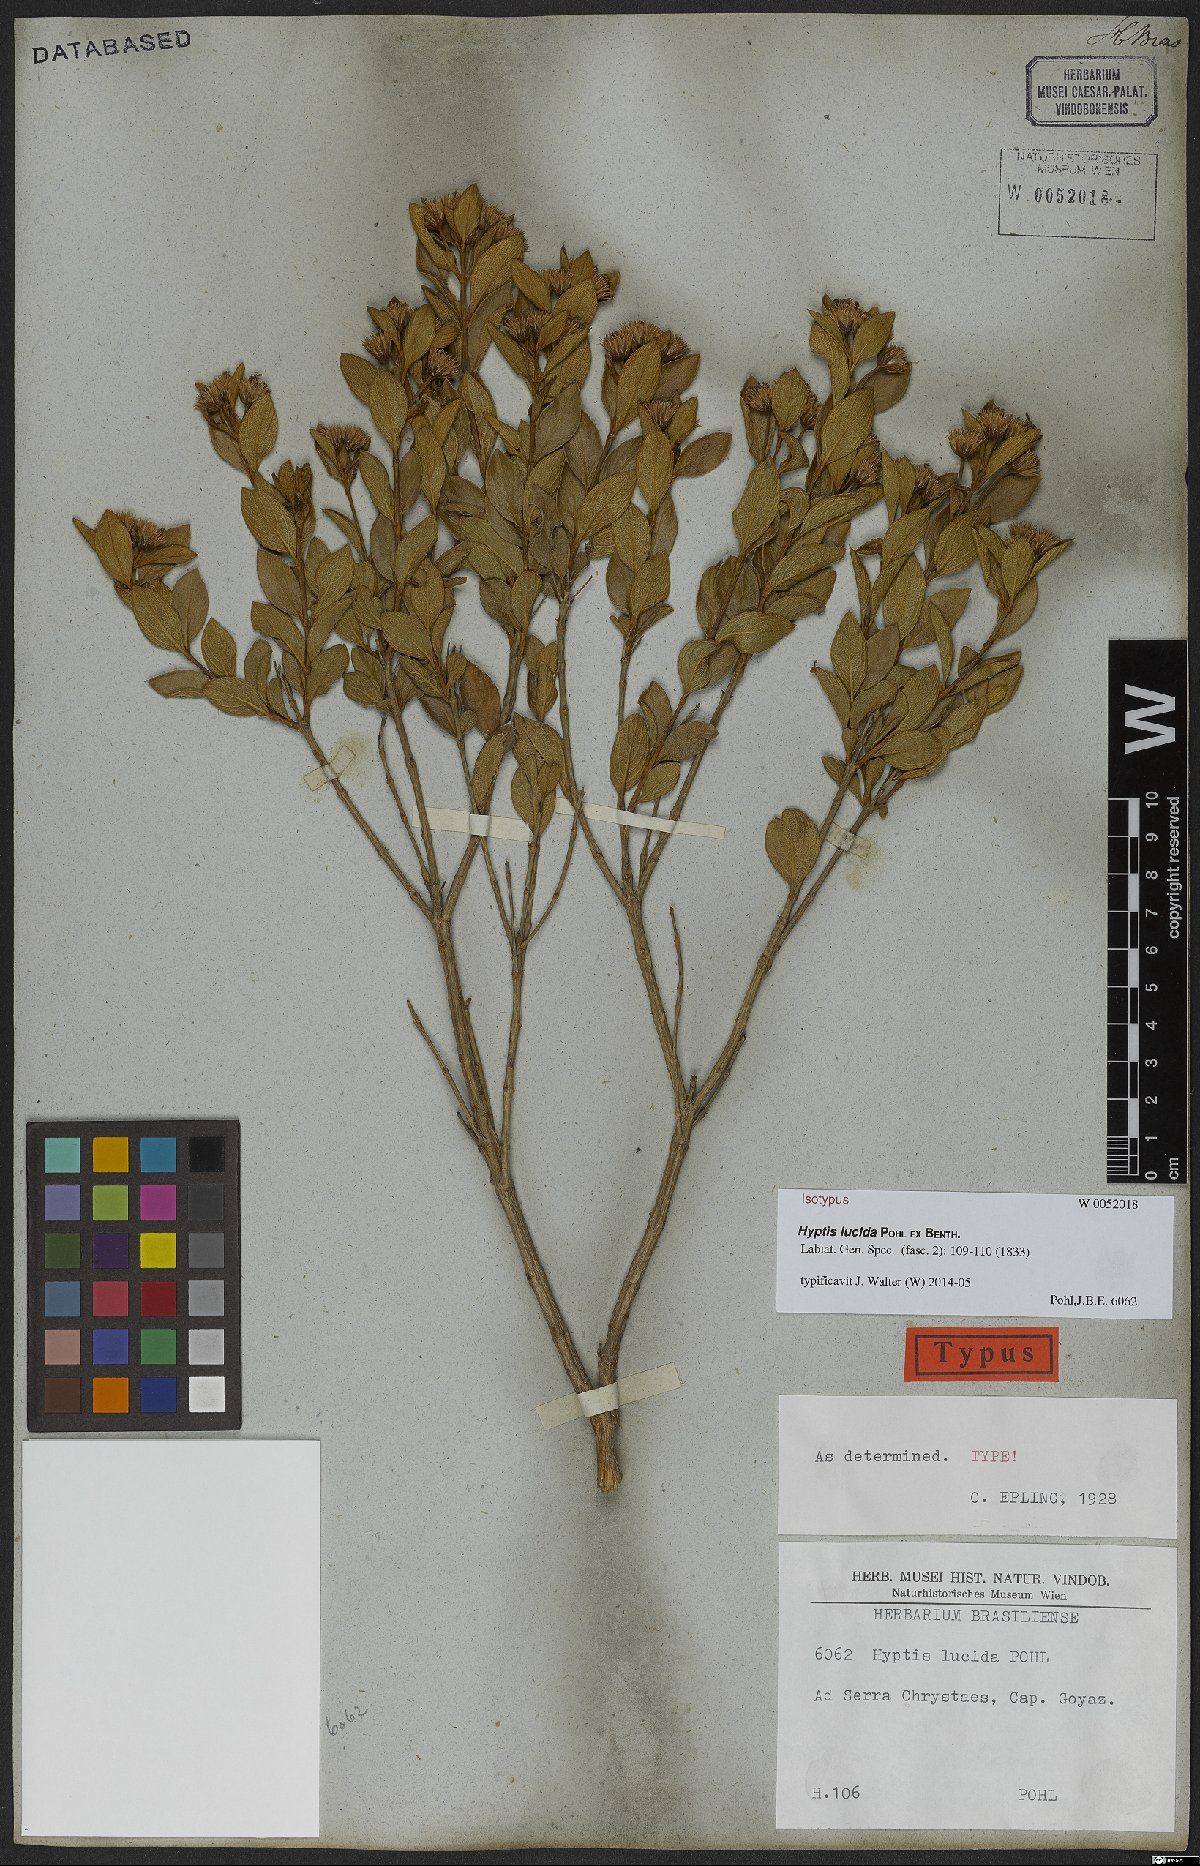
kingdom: Plantae
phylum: Tracheophyta
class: Magnoliopsida
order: Lamiales
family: Lamiaceae
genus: Hyptis
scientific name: Hyptis lucida
